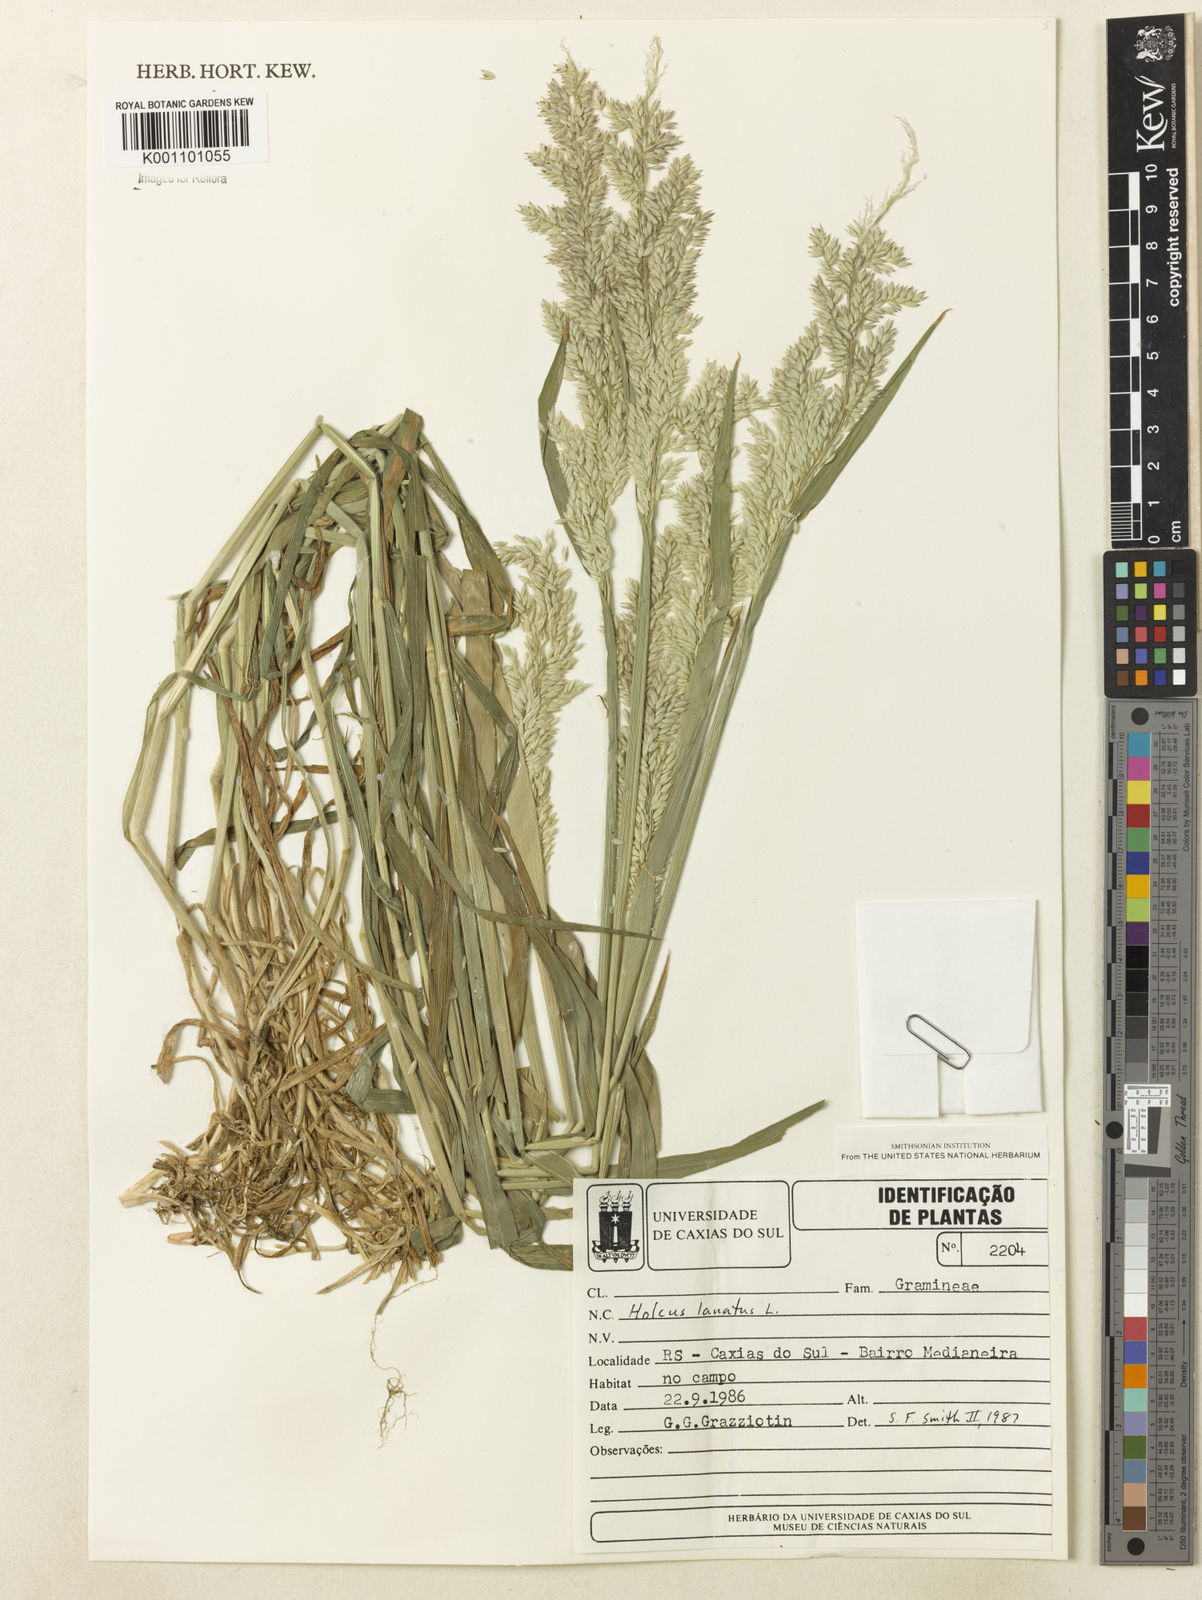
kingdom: Plantae
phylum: Tracheophyta
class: Liliopsida
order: Poales
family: Poaceae
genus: Holcus
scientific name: Holcus lanatus
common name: Yorkshire-fog
